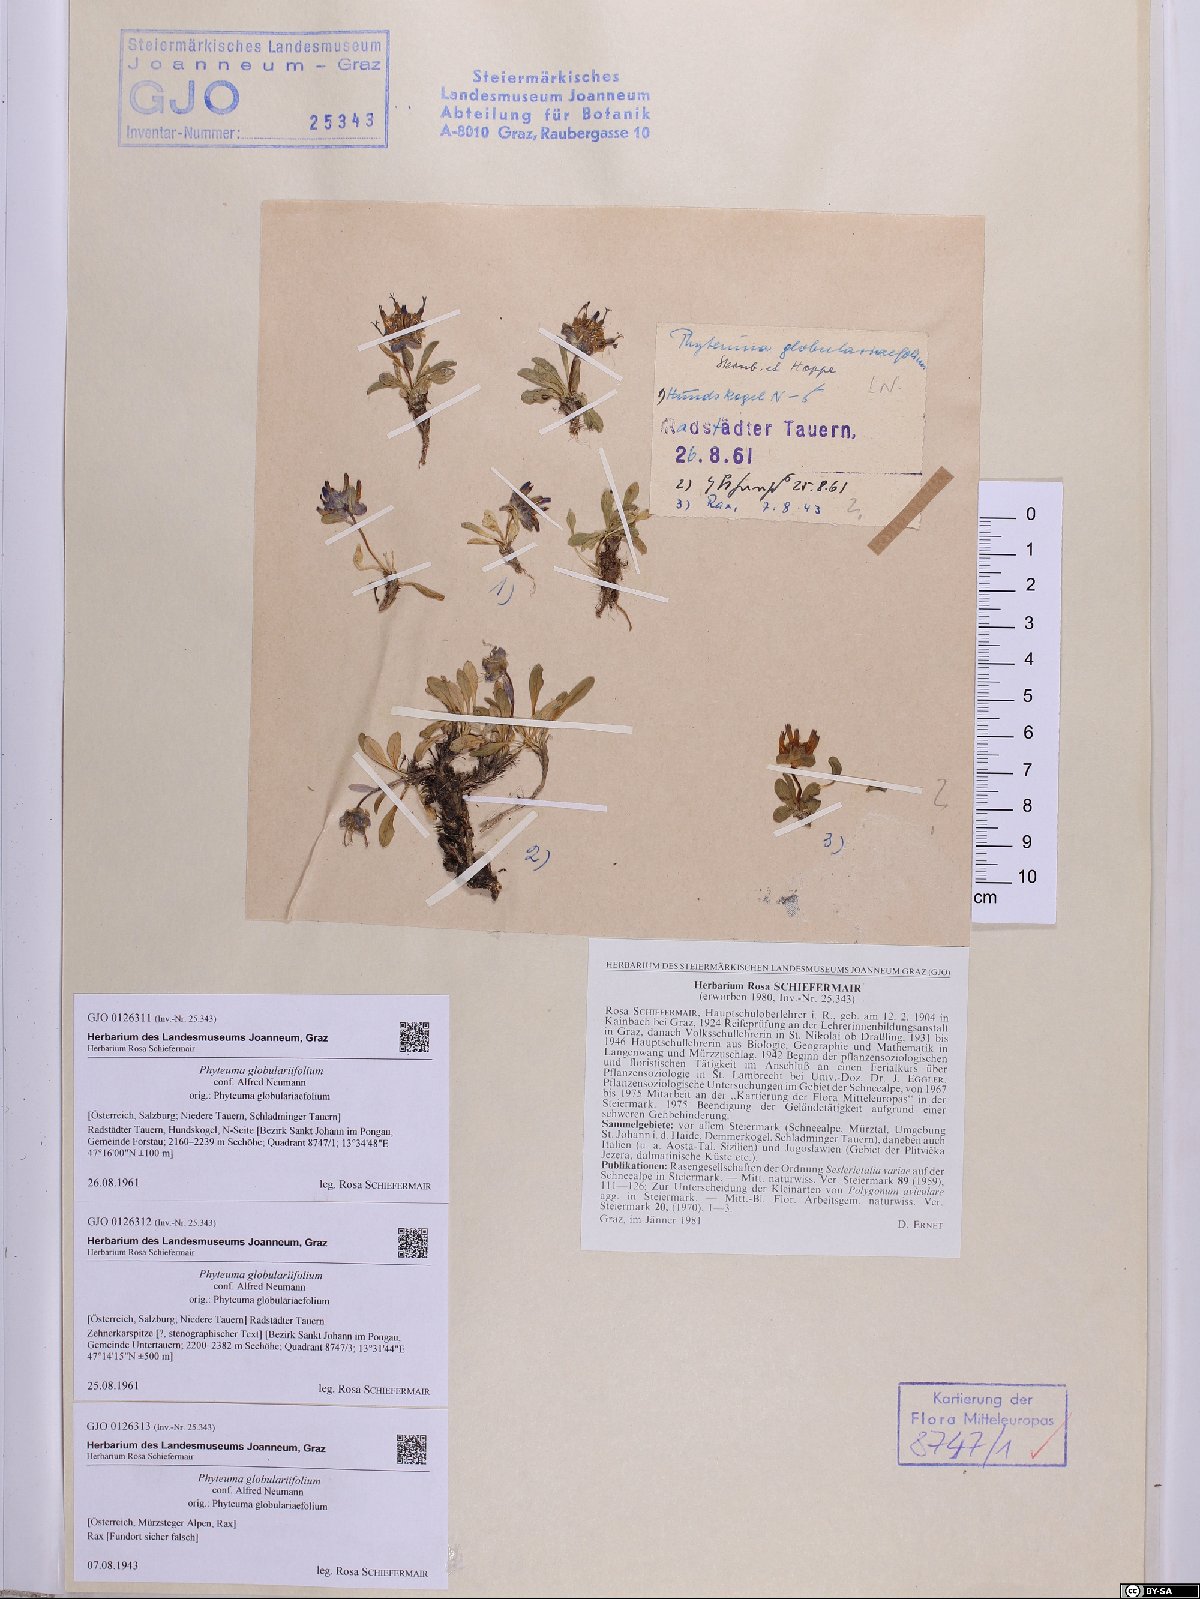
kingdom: Plantae
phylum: Tracheophyta
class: Magnoliopsida
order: Asterales
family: Campanulaceae
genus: Phyteuma
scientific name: Phyteuma globulariifolium
